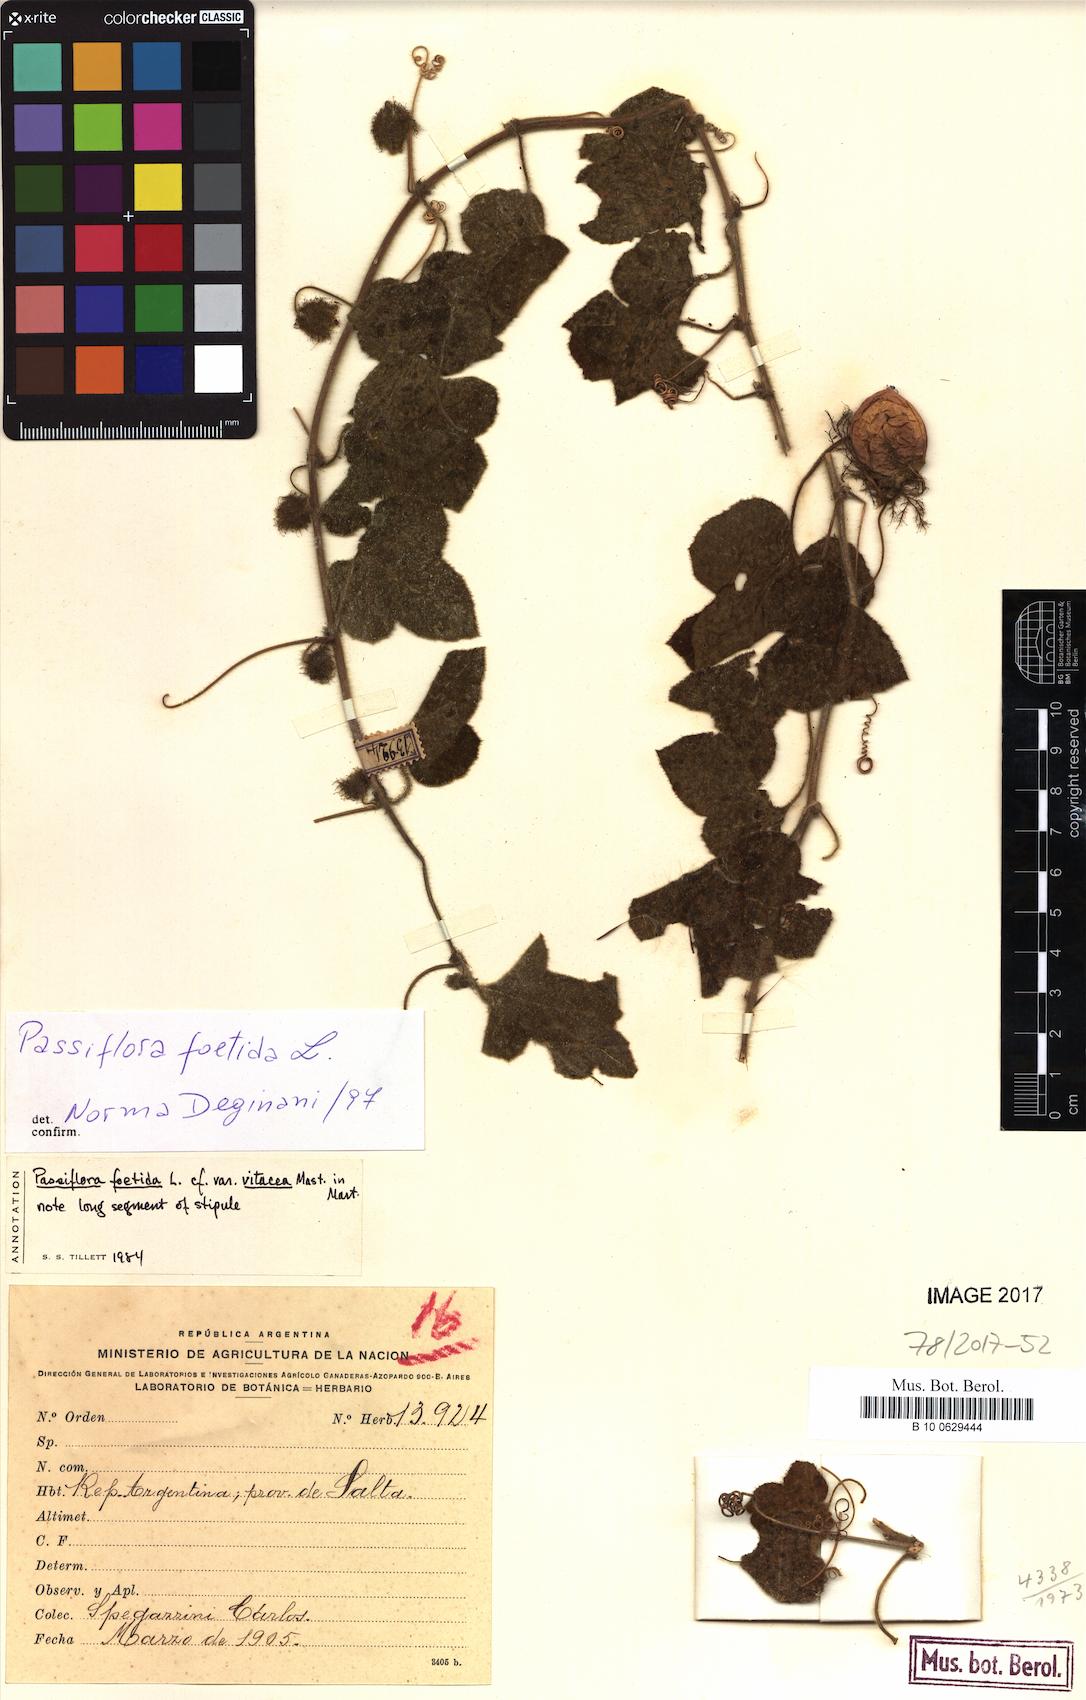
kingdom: Plantae
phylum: Tracheophyta
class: Magnoliopsida
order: Malpighiales
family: Passifloraceae
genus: Passiflora
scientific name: Passiflora foetida
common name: Fetid passionflower
